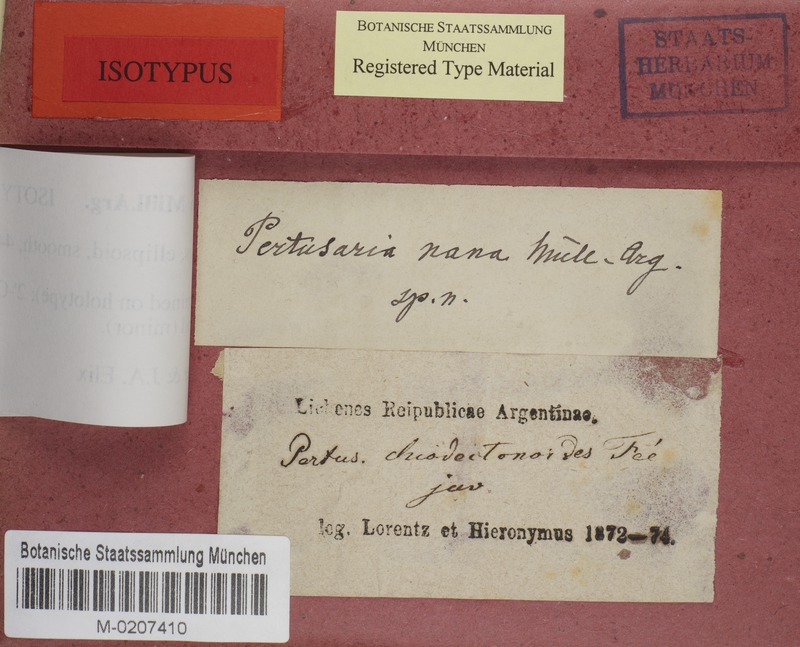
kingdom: Fungi
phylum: Ascomycota
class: Lecanoromycetes
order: Pertusariales
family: Pertusariaceae
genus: Pertusaria
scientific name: Pertusaria
